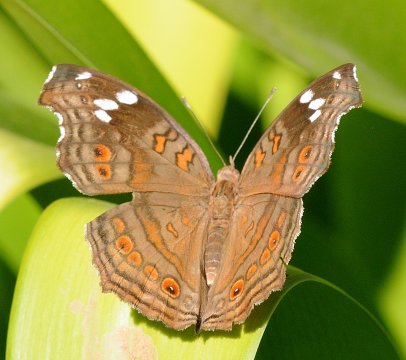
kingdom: Animalia
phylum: Arthropoda
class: Insecta
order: Lepidoptera
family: Nymphalidae
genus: Junonia
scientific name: Junonia natalica
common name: Natal Pansy
